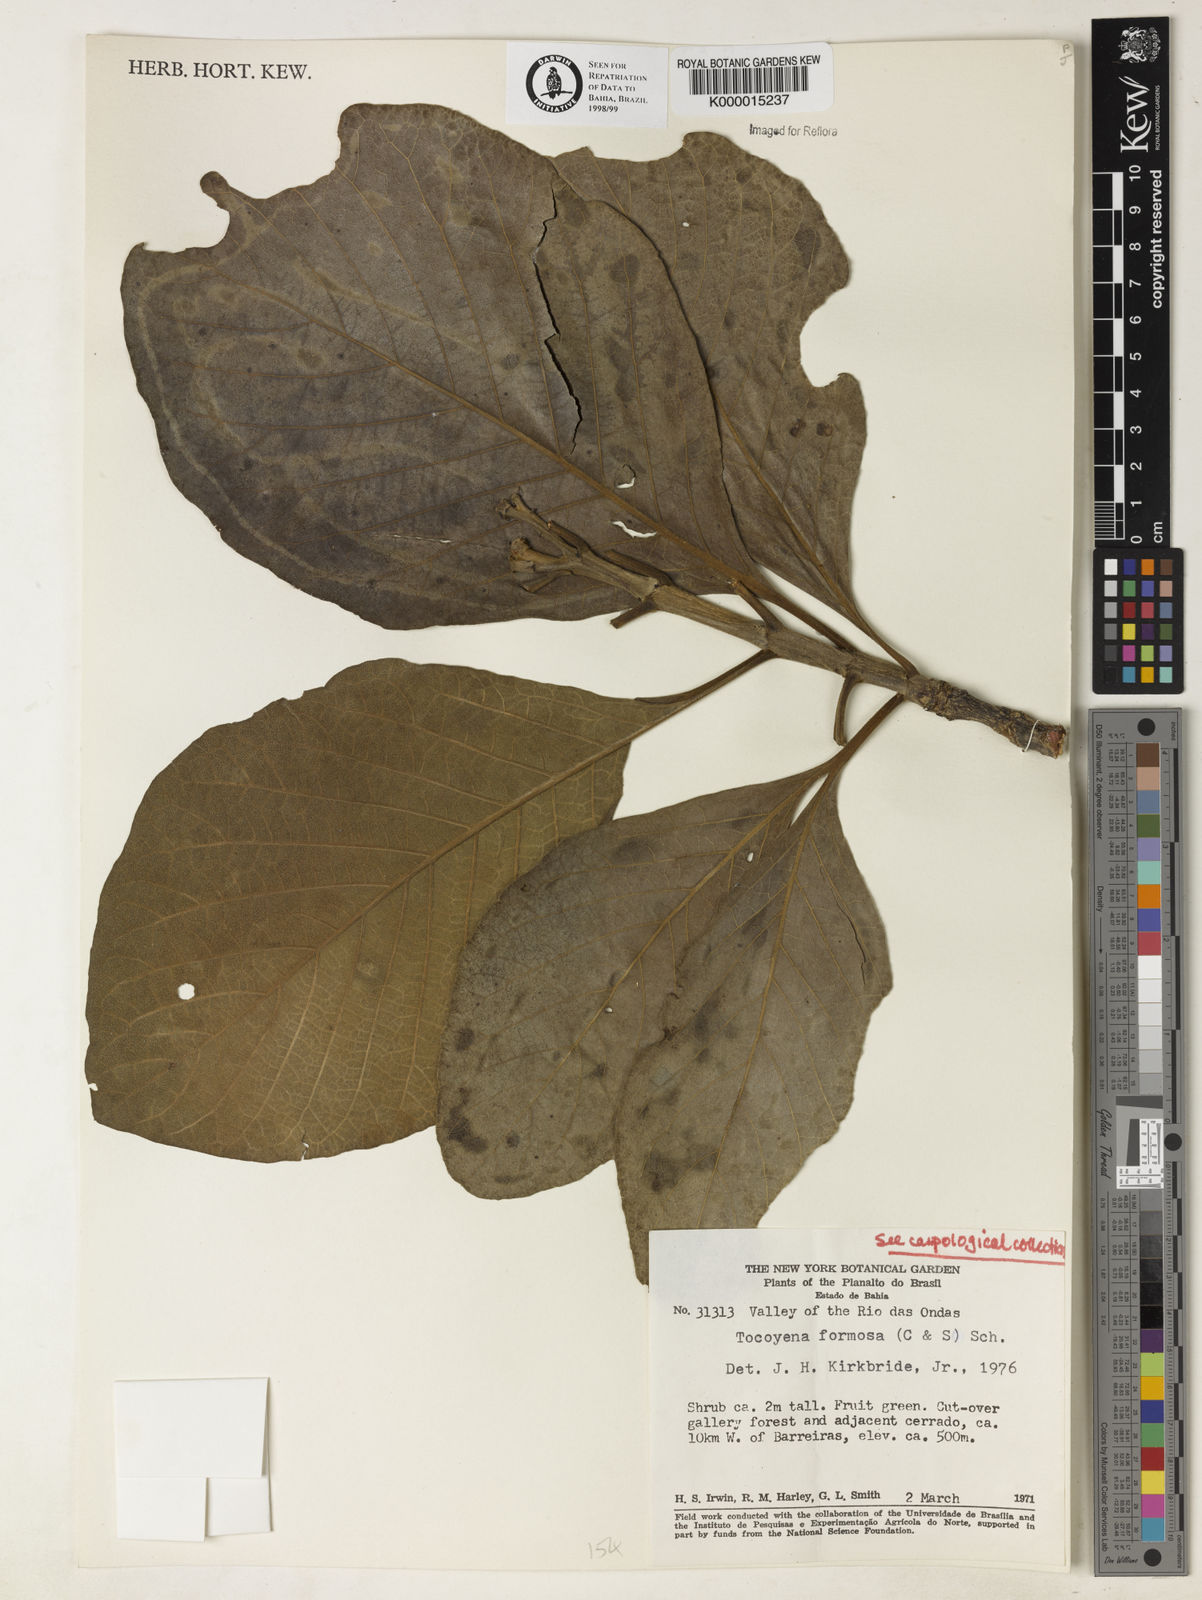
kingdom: Plantae
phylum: Tracheophyta
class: Magnoliopsida
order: Gentianales
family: Rubiaceae
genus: Tocoyena
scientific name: Tocoyena formosa
